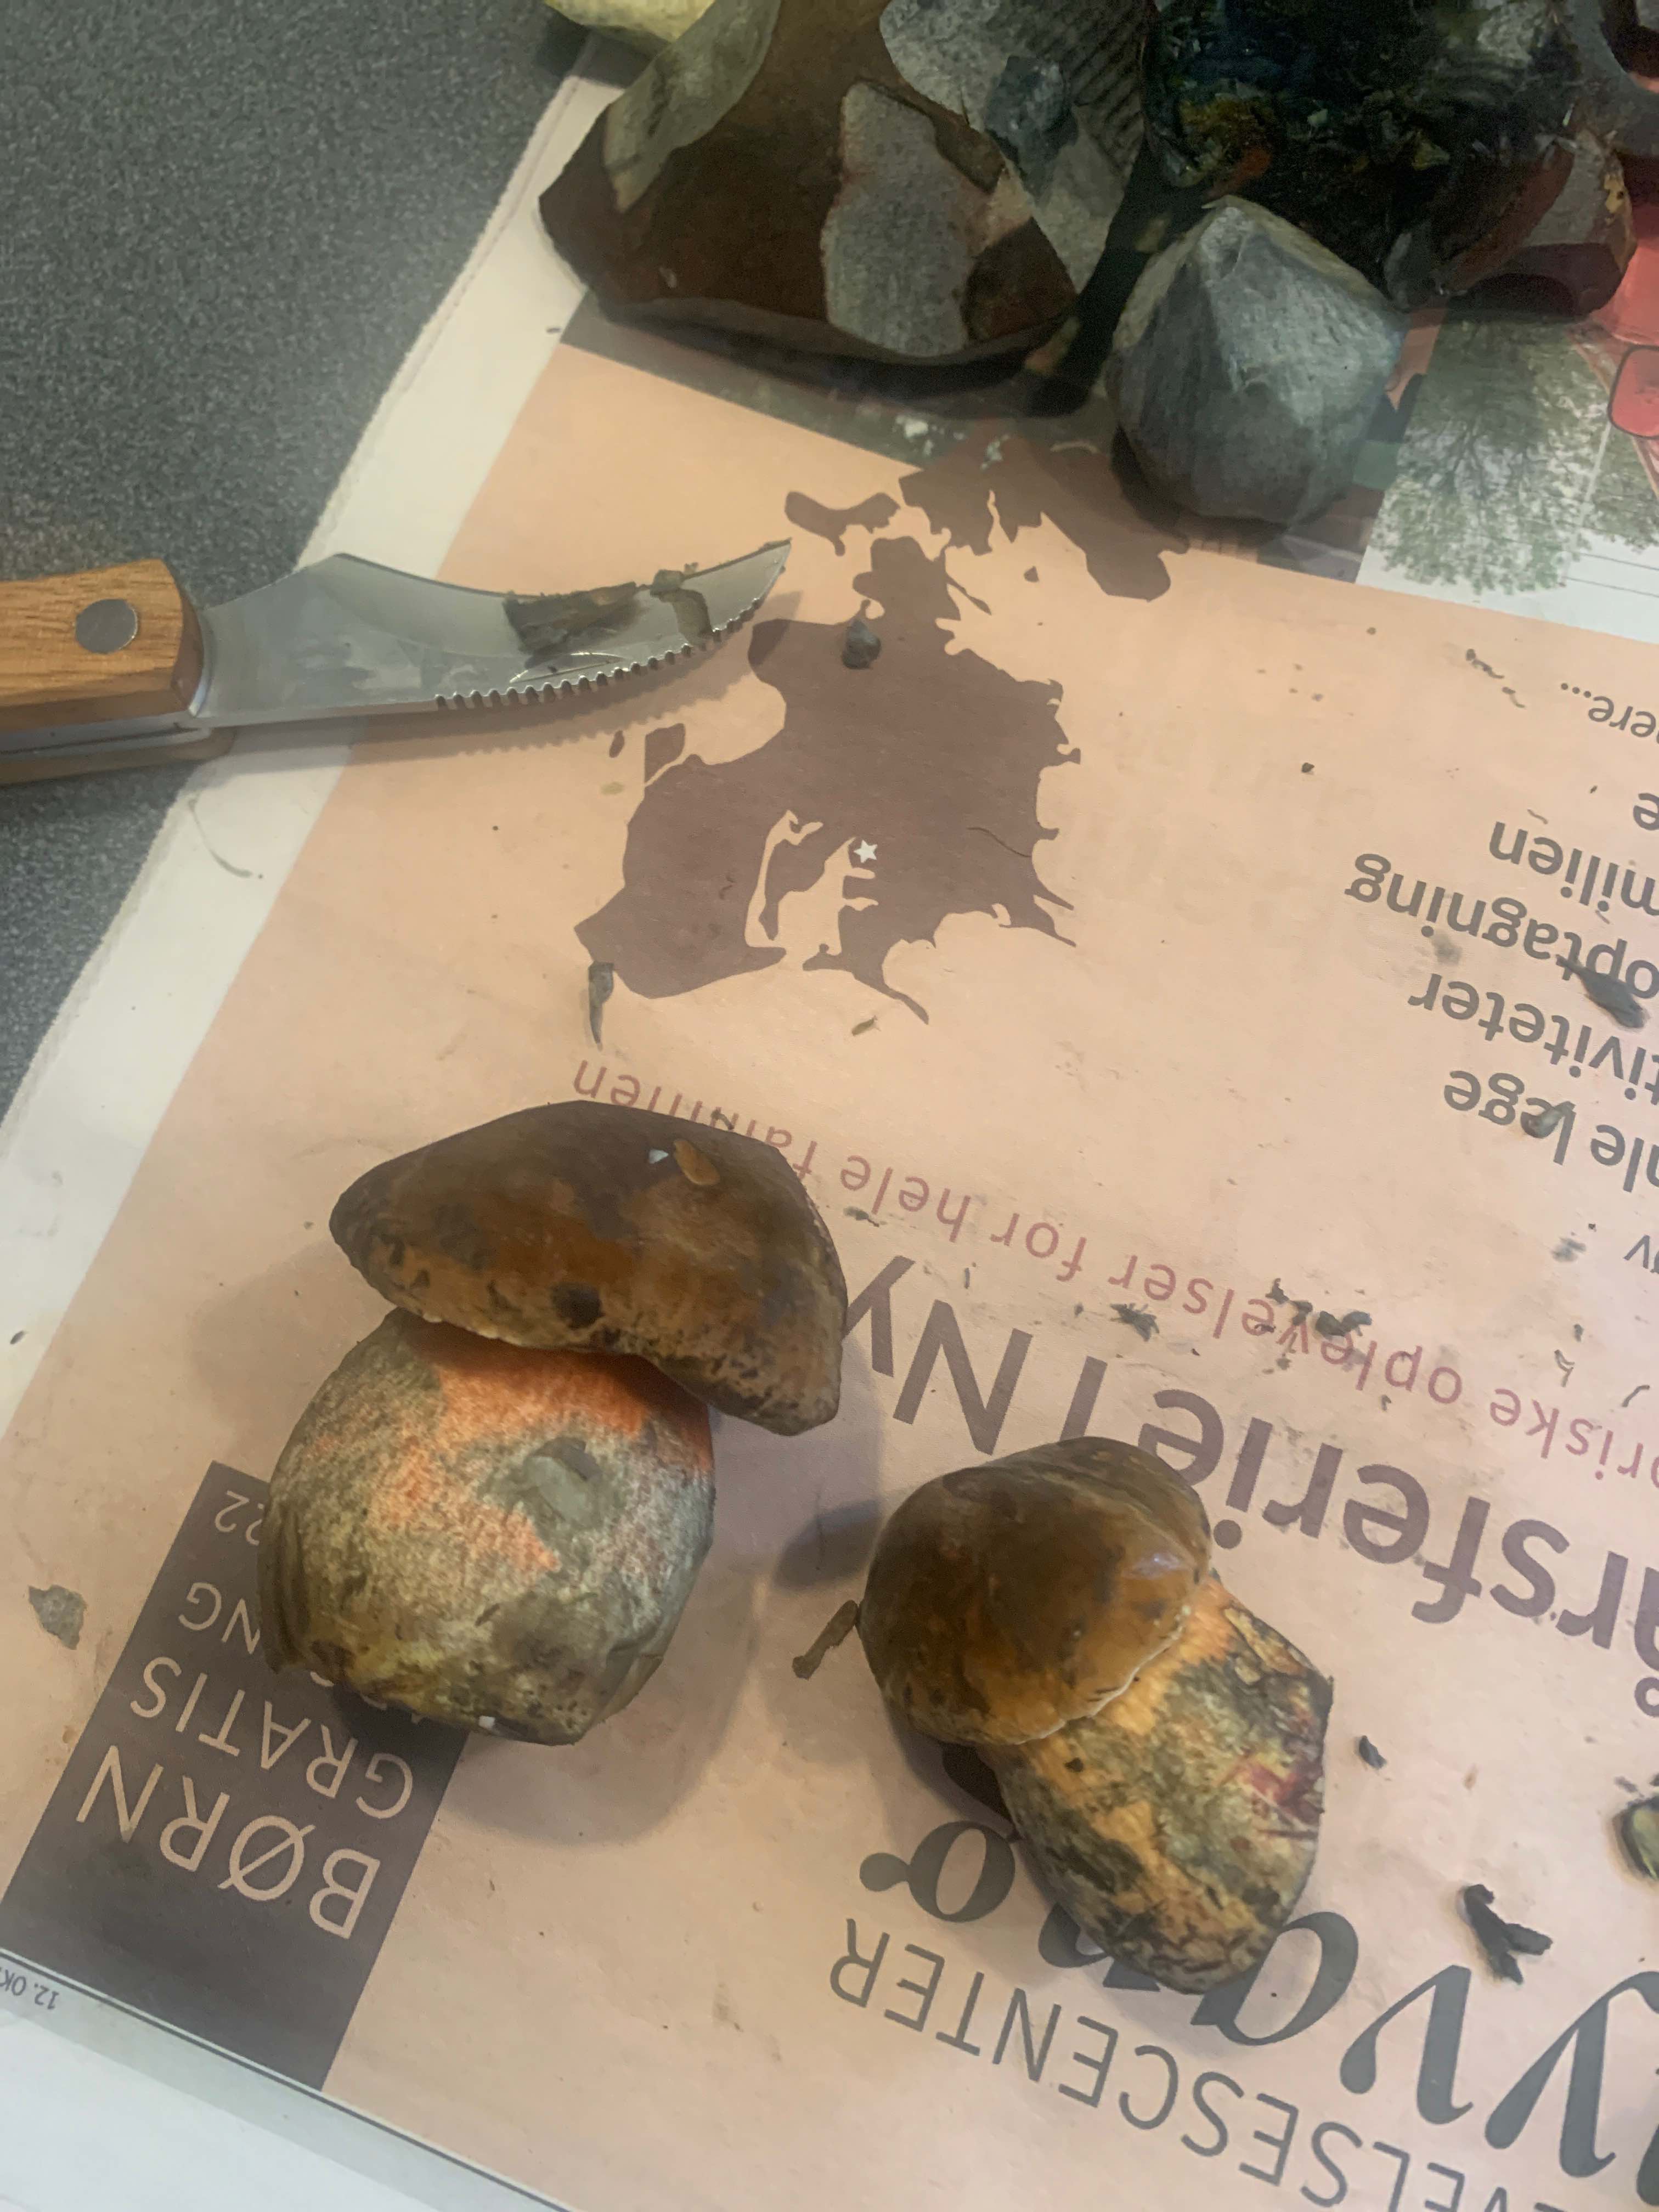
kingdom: Fungi
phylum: Basidiomycota
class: Agaricomycetes
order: Boletales
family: Boletaceae
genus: Neoboletus
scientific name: Neoboletus erythropus
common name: punktstokket indigorørhat
